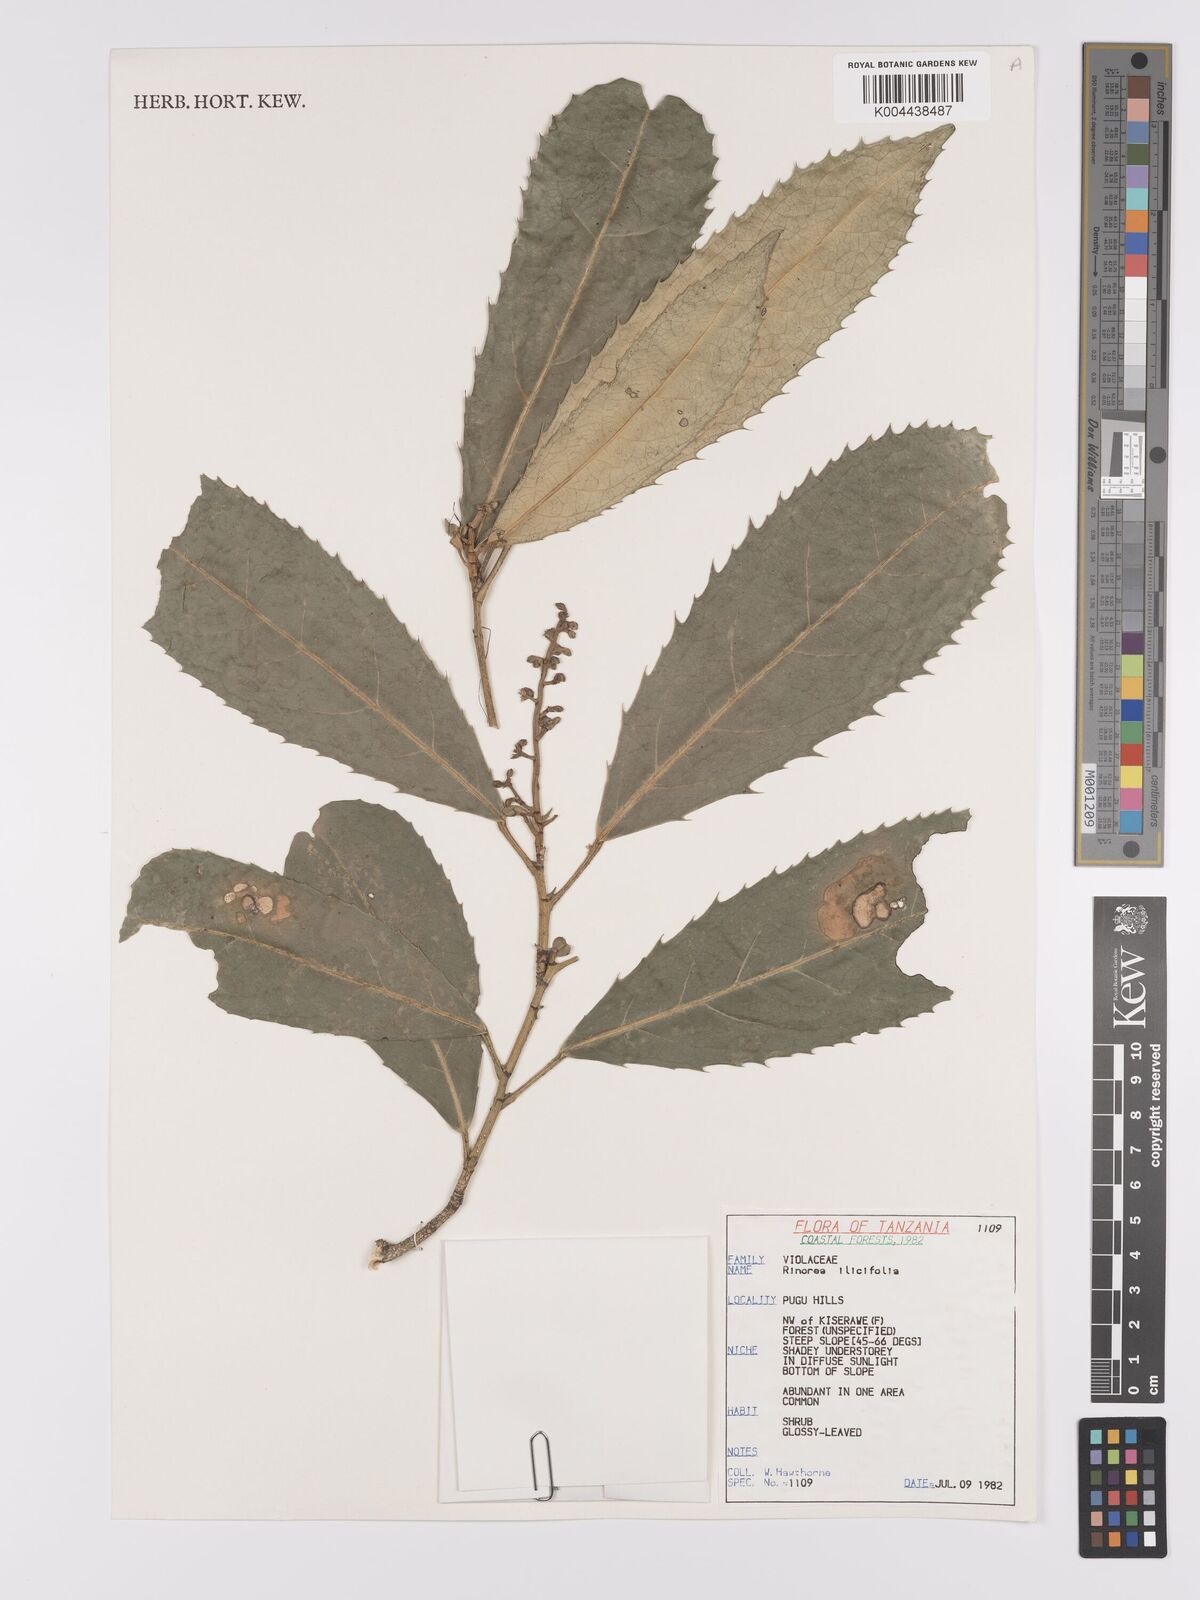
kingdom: Plantae
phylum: Tracheophyta
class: Magnoliopsida
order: Malpighiales
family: Violaceae
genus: Rinorea
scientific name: Rinorea ilicifolia
